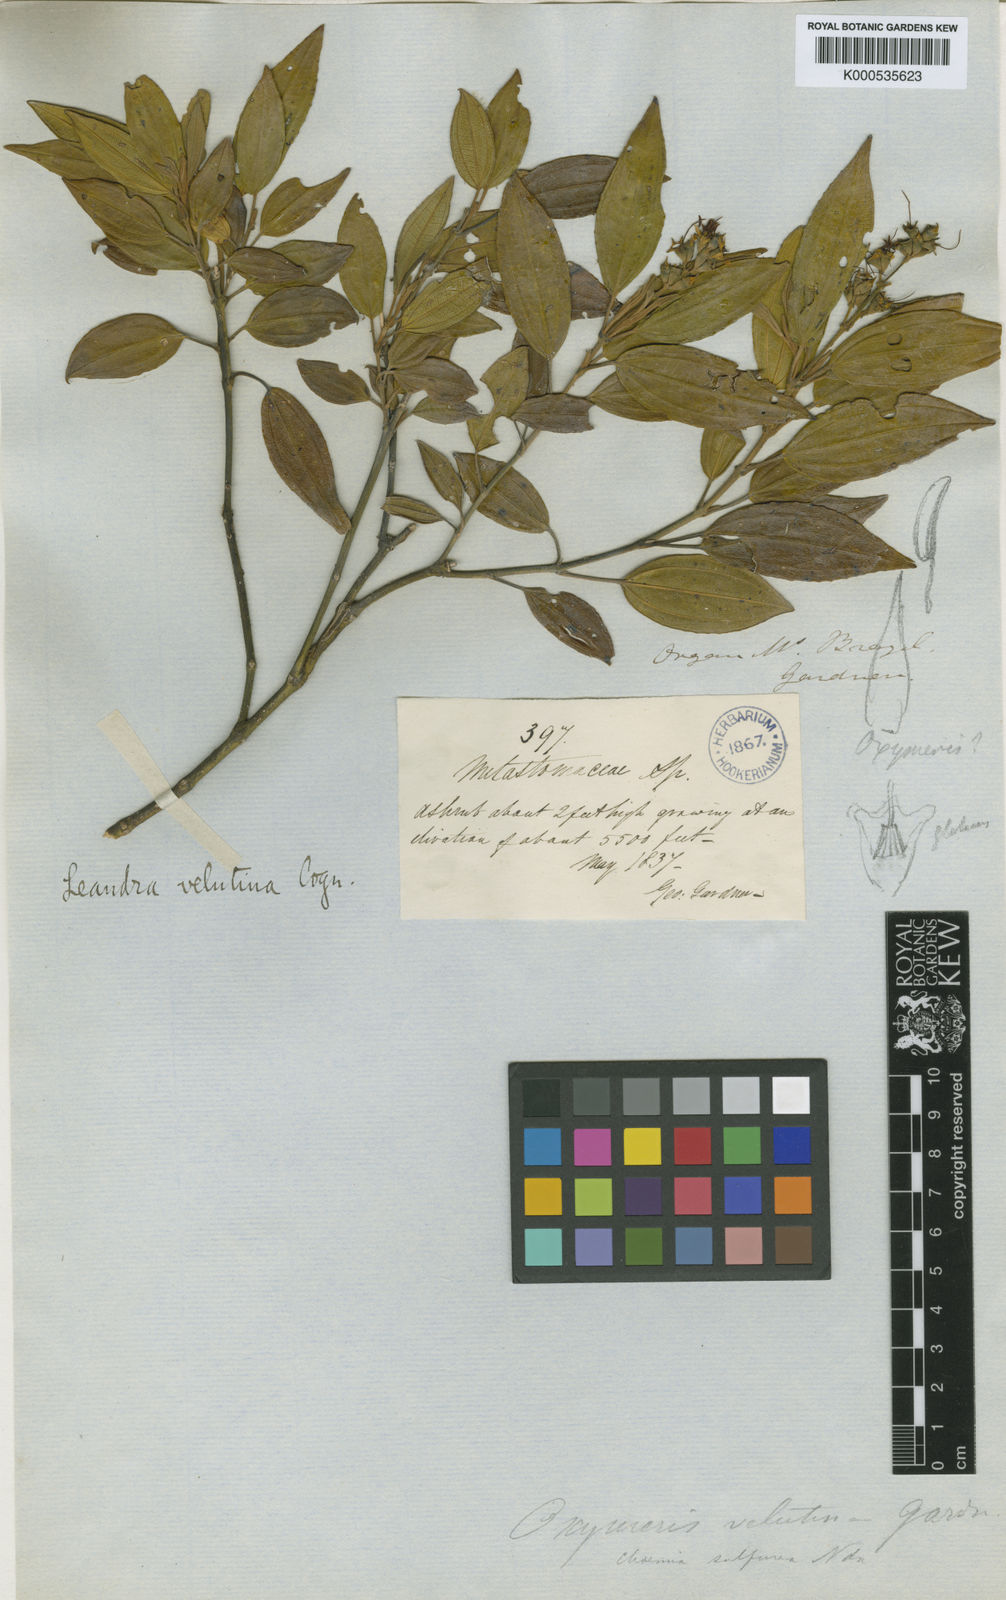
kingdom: Plantae
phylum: Tracheophyta
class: Magnoliopsida
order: Myrtales
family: Melastomataceae
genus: Miconia
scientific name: Miconia leavelutina
